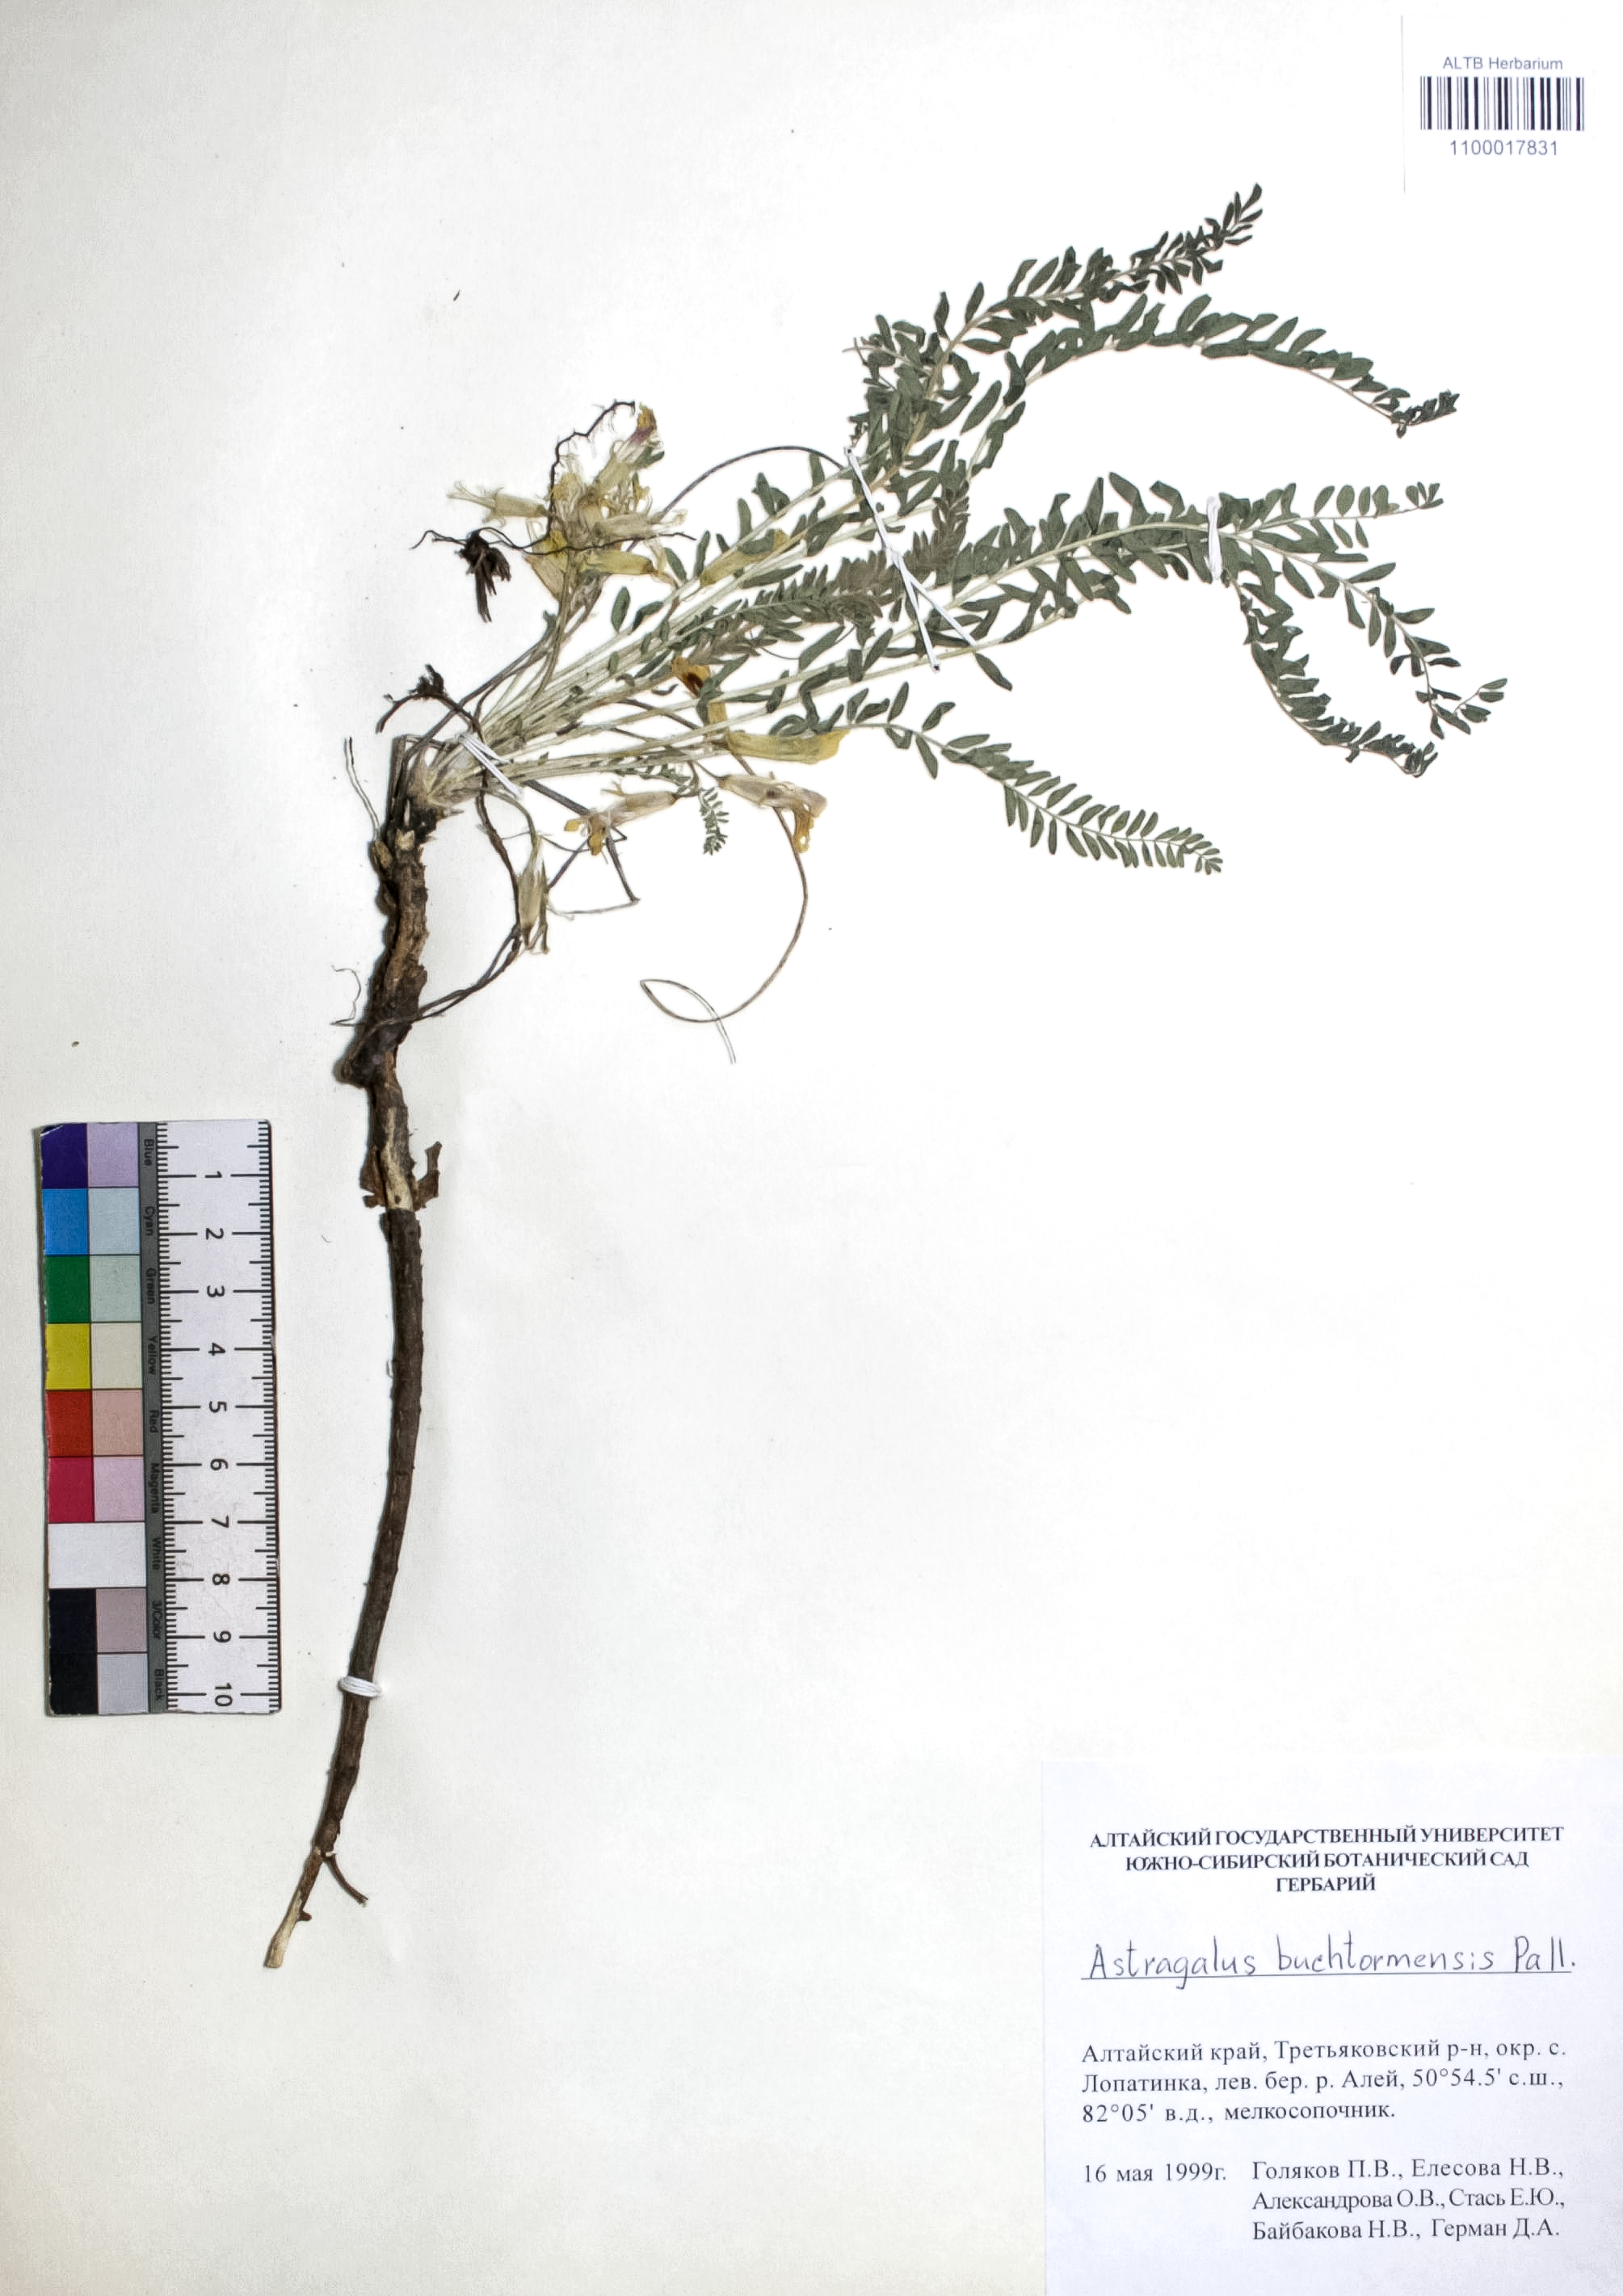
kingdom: Plantae
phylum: Tracheophyta
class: Magnoliopsida
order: Fabales
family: Fabaceae
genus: Astragalus
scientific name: Astragalus buchtormensis
